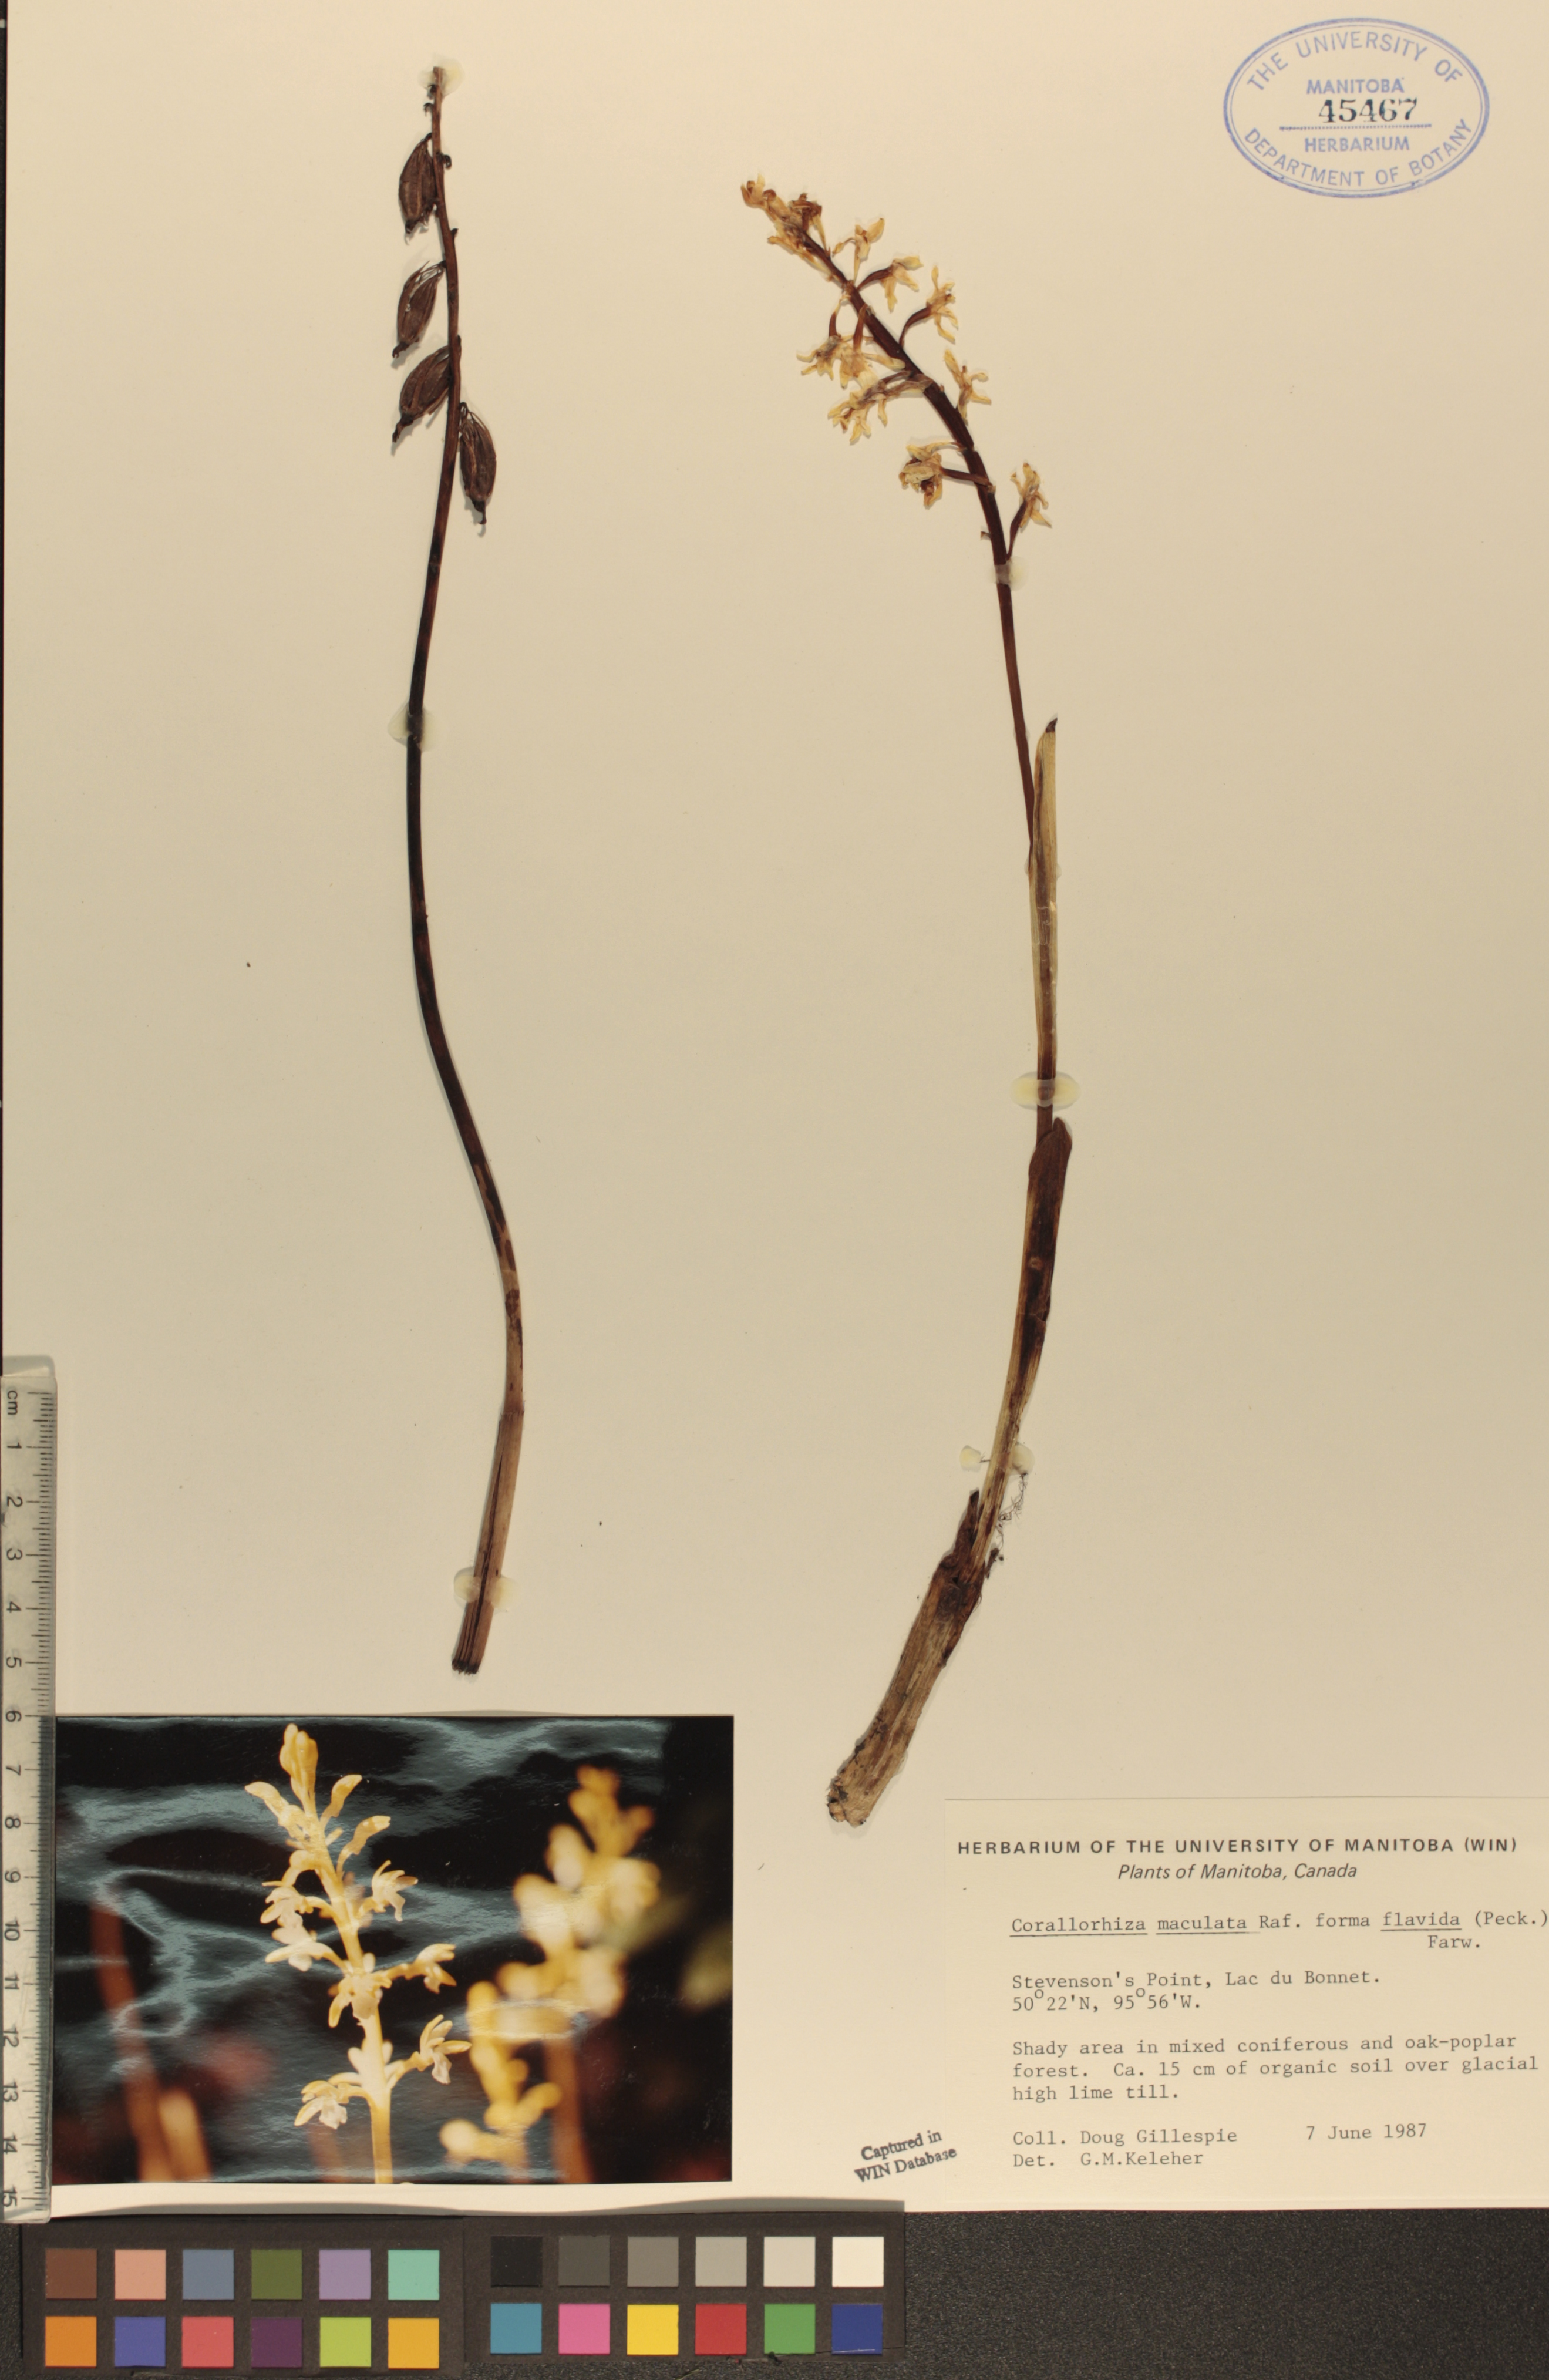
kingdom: Plantae
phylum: Tracheophyta
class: Liliopsida
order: Asparagales
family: Orchidaceae
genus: Corallorhiza
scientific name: Corallorhiza maculata
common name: Spotted coralroot
